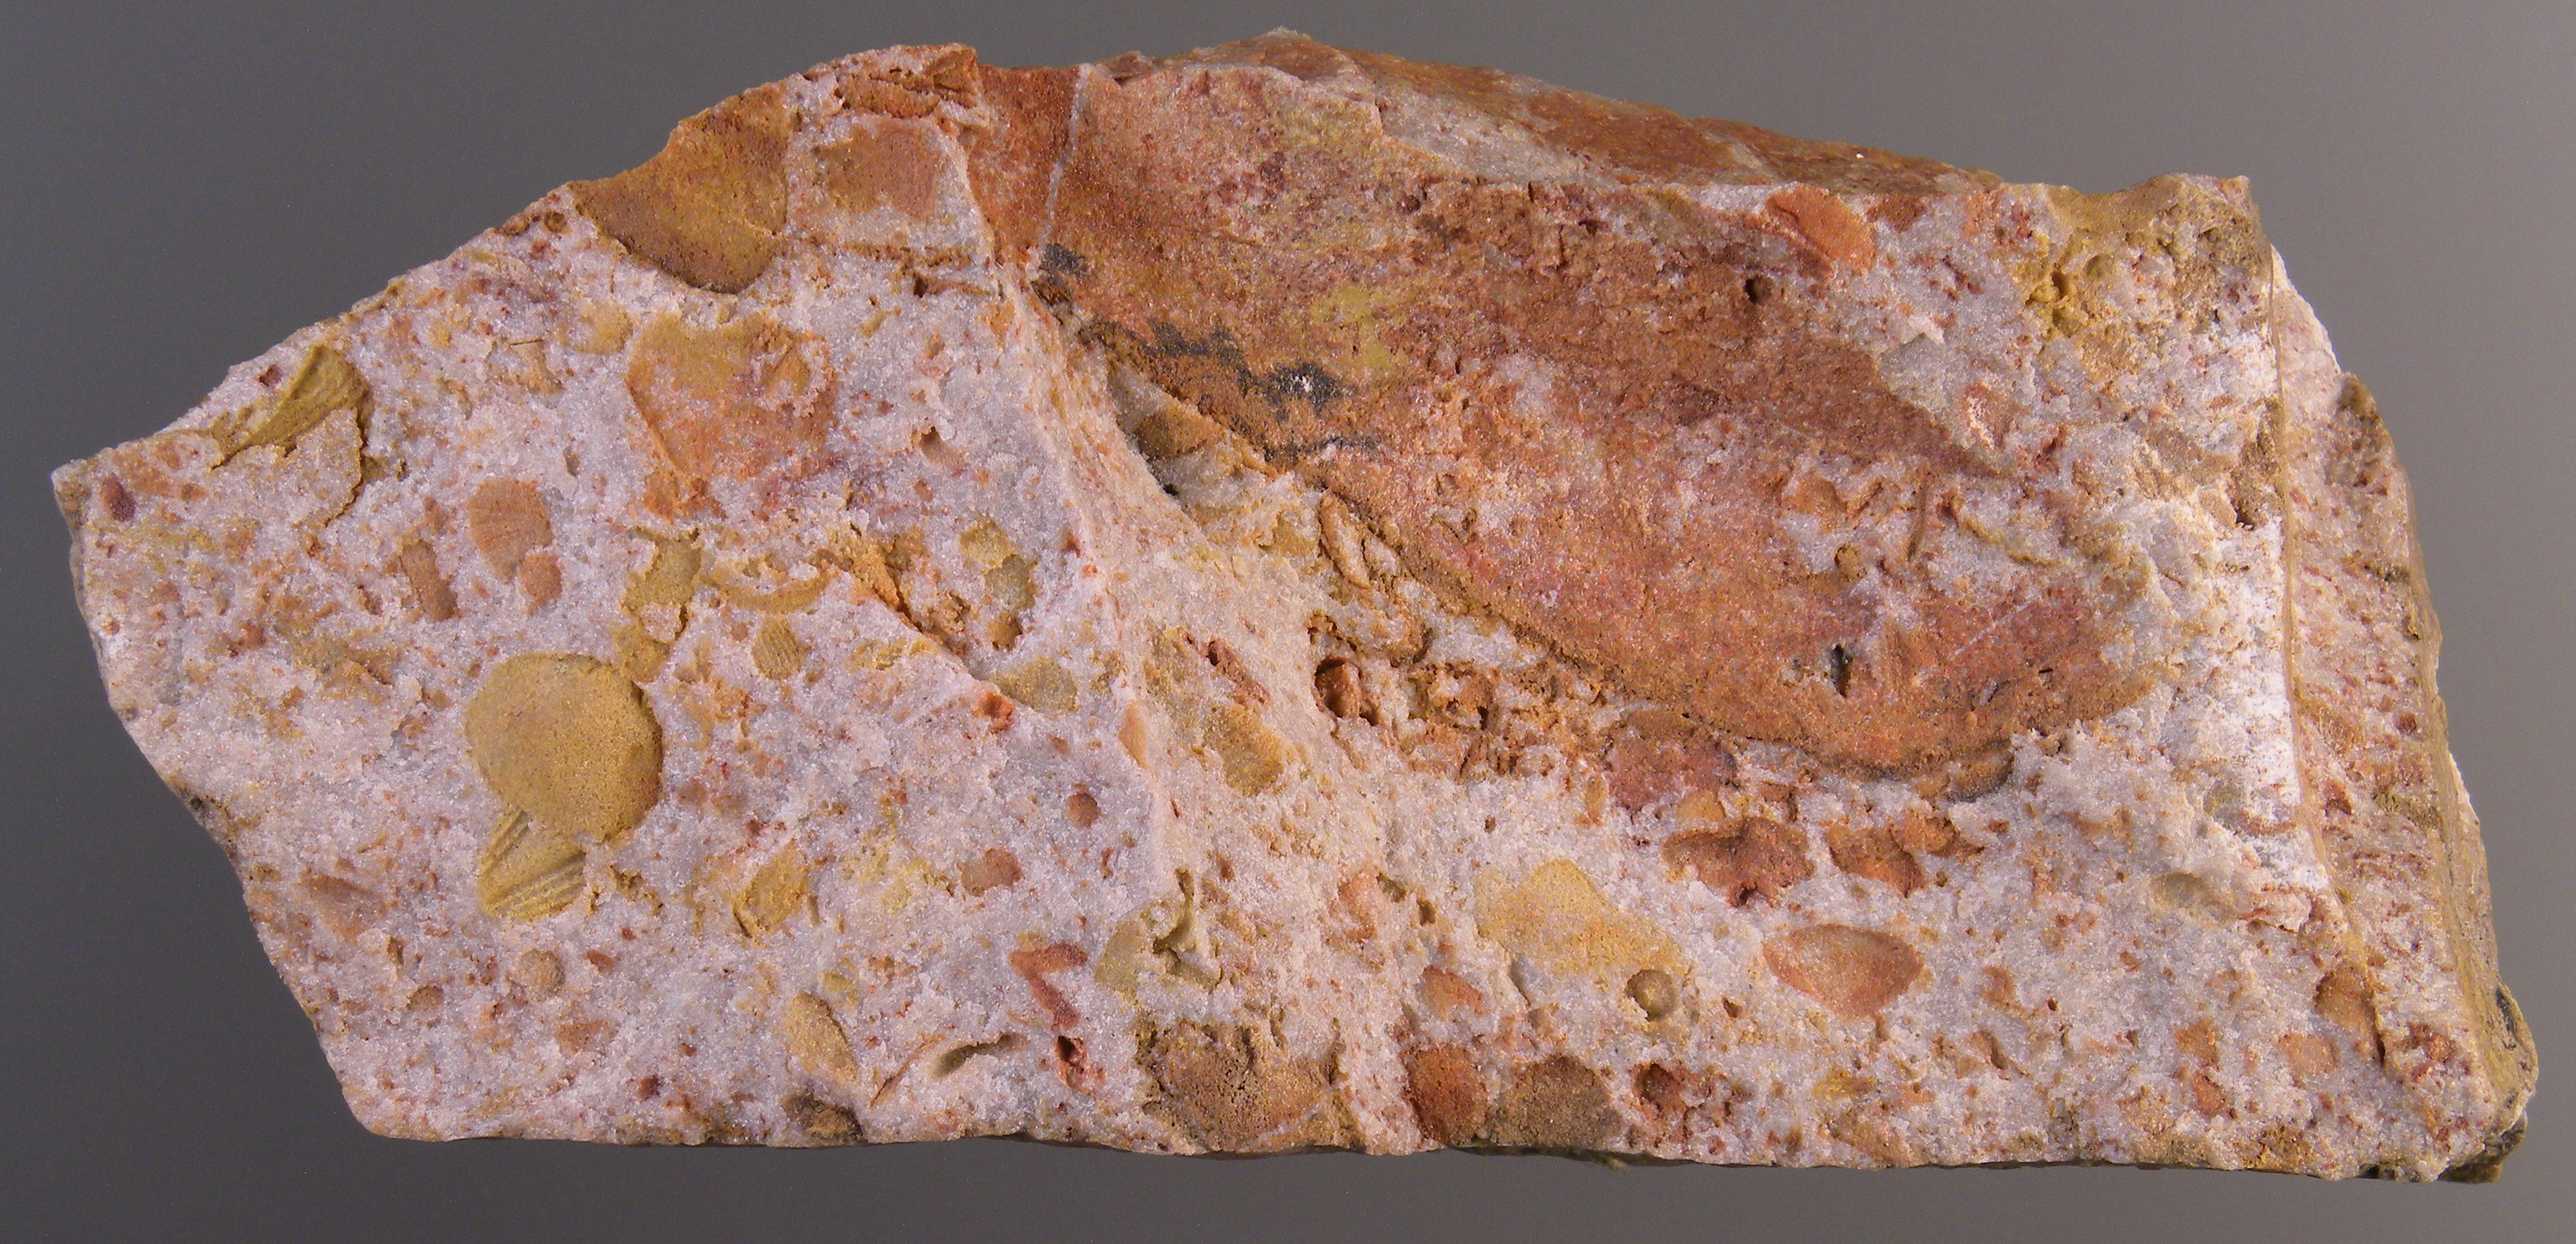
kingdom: Animalia
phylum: Mollusca
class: Bivalvia
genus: Phorinoplax
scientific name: Phorinoplax
